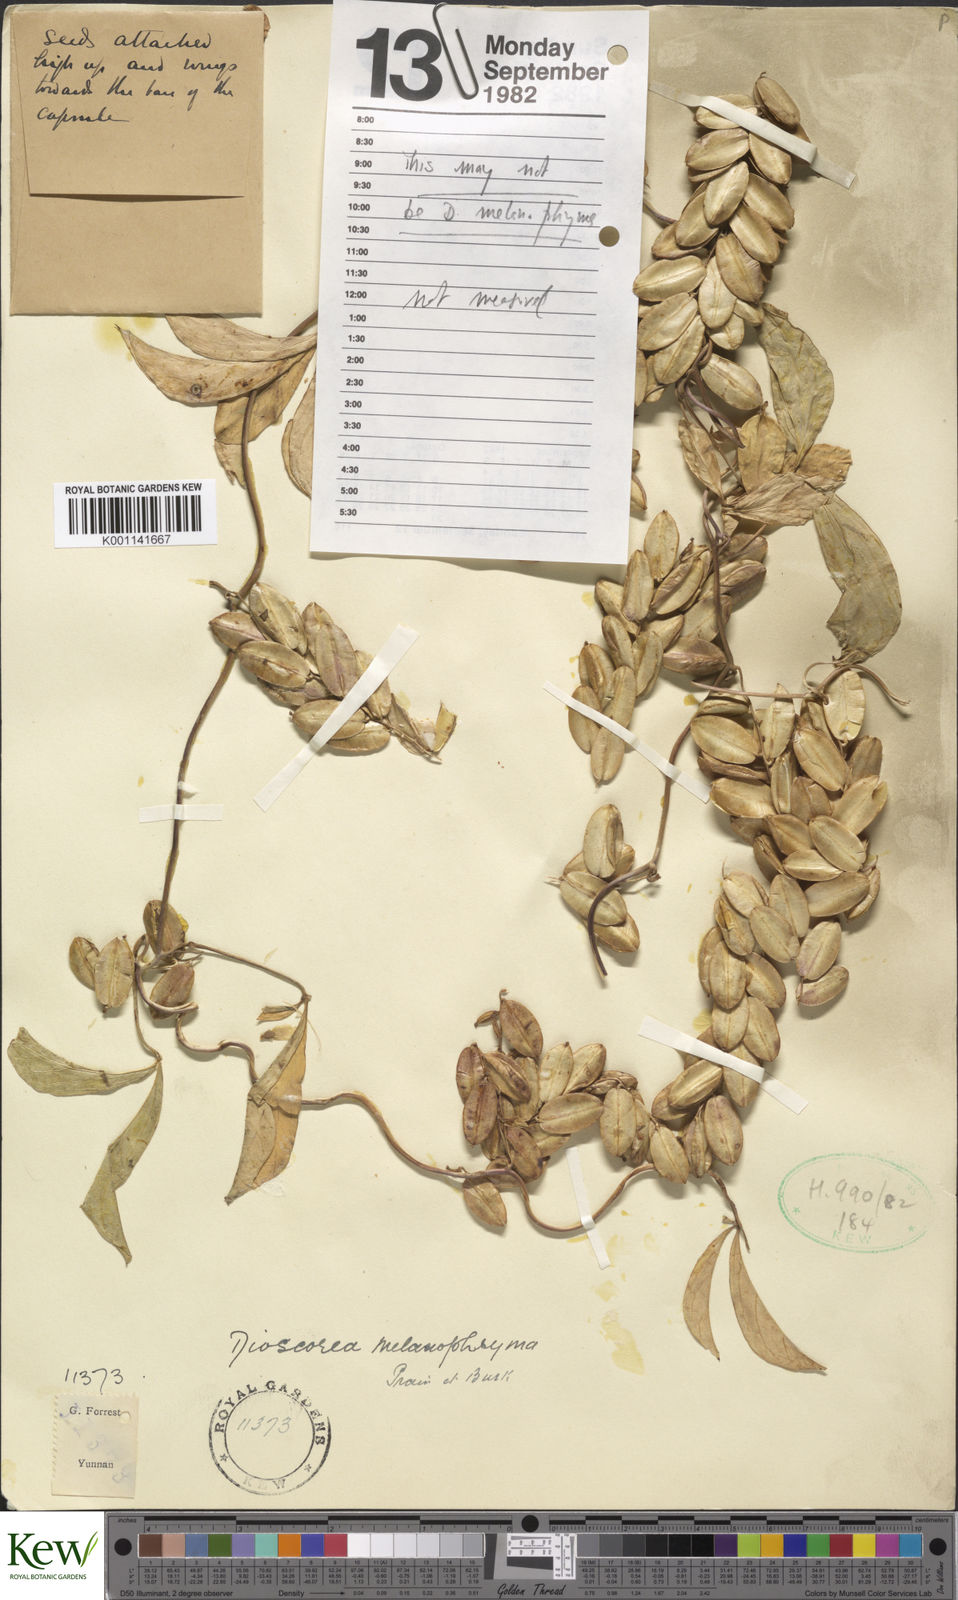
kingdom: Plantae
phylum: Tracheophyta
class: Liliopsida
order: Dioscoreales
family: Dioscoreaceae
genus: Dioscorea
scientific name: Dioscorea melanophyma
